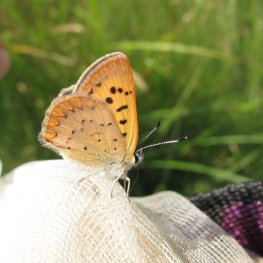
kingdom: Animalia
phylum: Arthropoda
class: Insecta
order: Lepidoptera
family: Lycaenidae
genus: Epidemia
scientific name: Epidemia dorcas
